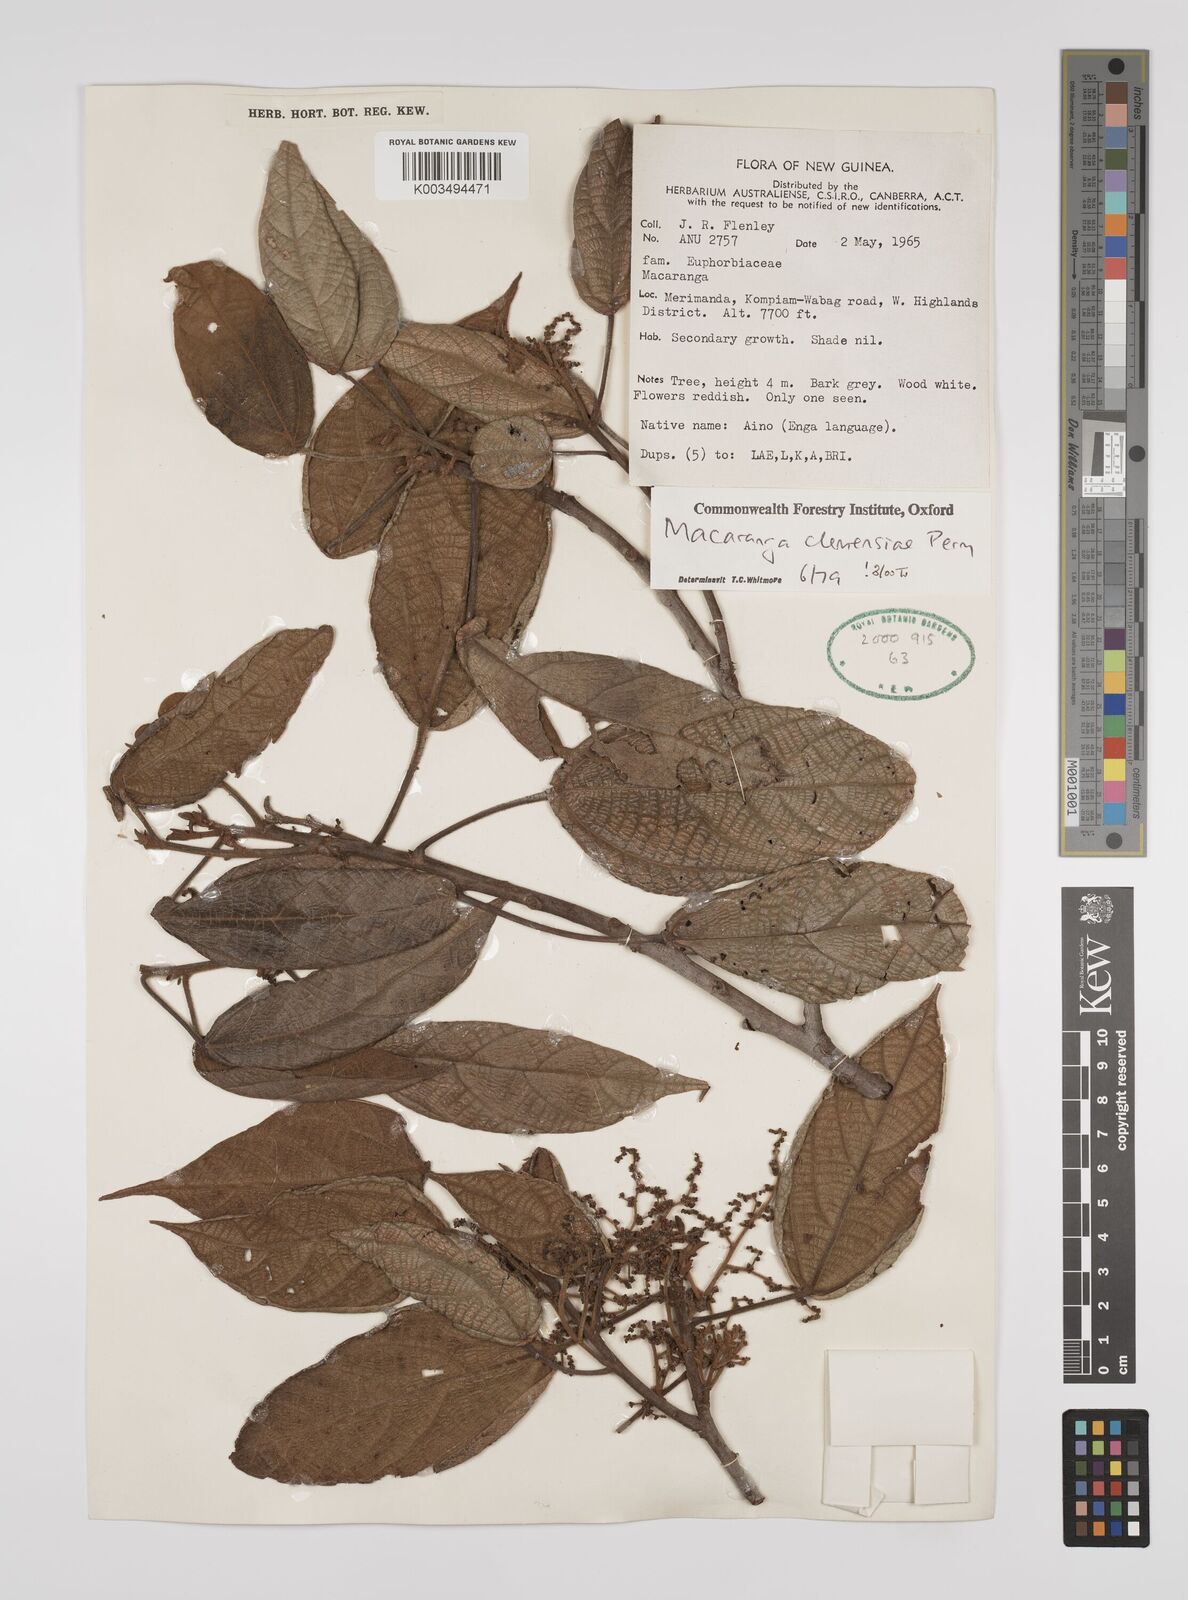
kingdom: Plantae
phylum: Tracheophyta
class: Magnoliopsida
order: Malpighiales
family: Euphorbiaceae
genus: Macaranga
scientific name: Macaranga clemensiae
